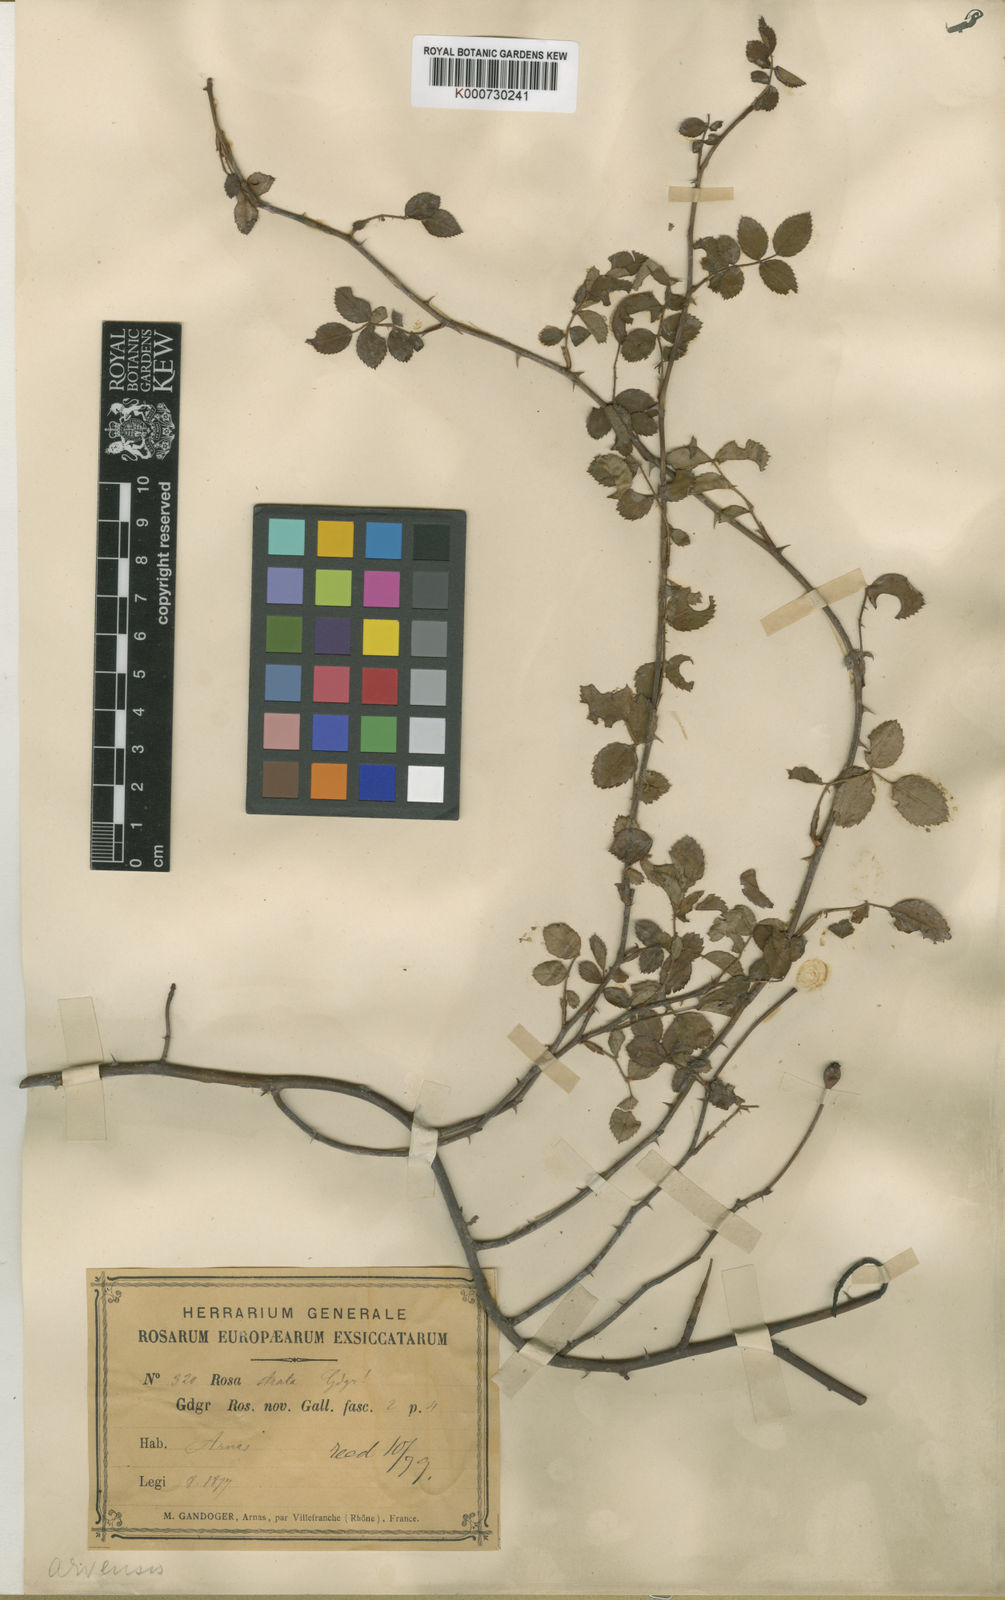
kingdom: Plantae
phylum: Tracheophyta
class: Magnoliopsida
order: Rosales
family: Rosaceae
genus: Rosa
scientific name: Rosa arvensis
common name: Field rose
